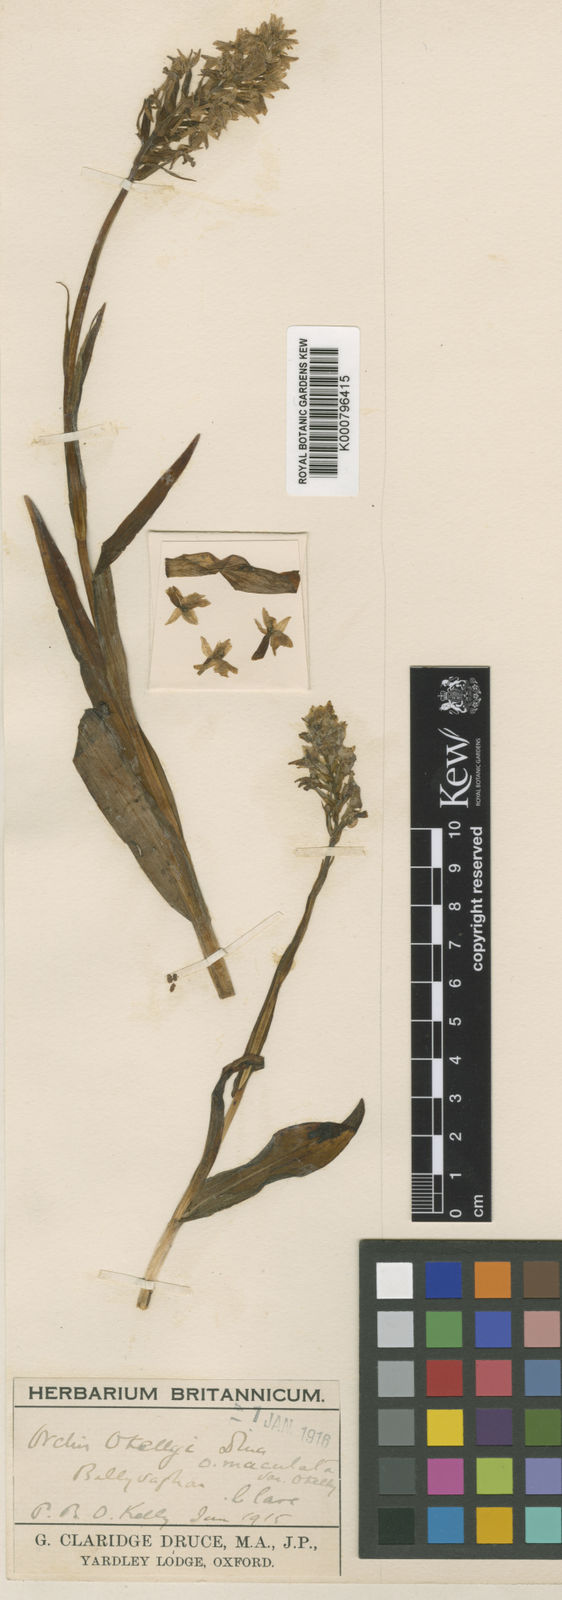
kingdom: Plantae
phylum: Tracheophyta
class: Liliopsida
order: Asparagales
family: Orchidaceae
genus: Dactylorhiza
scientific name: Dactylorhiza
